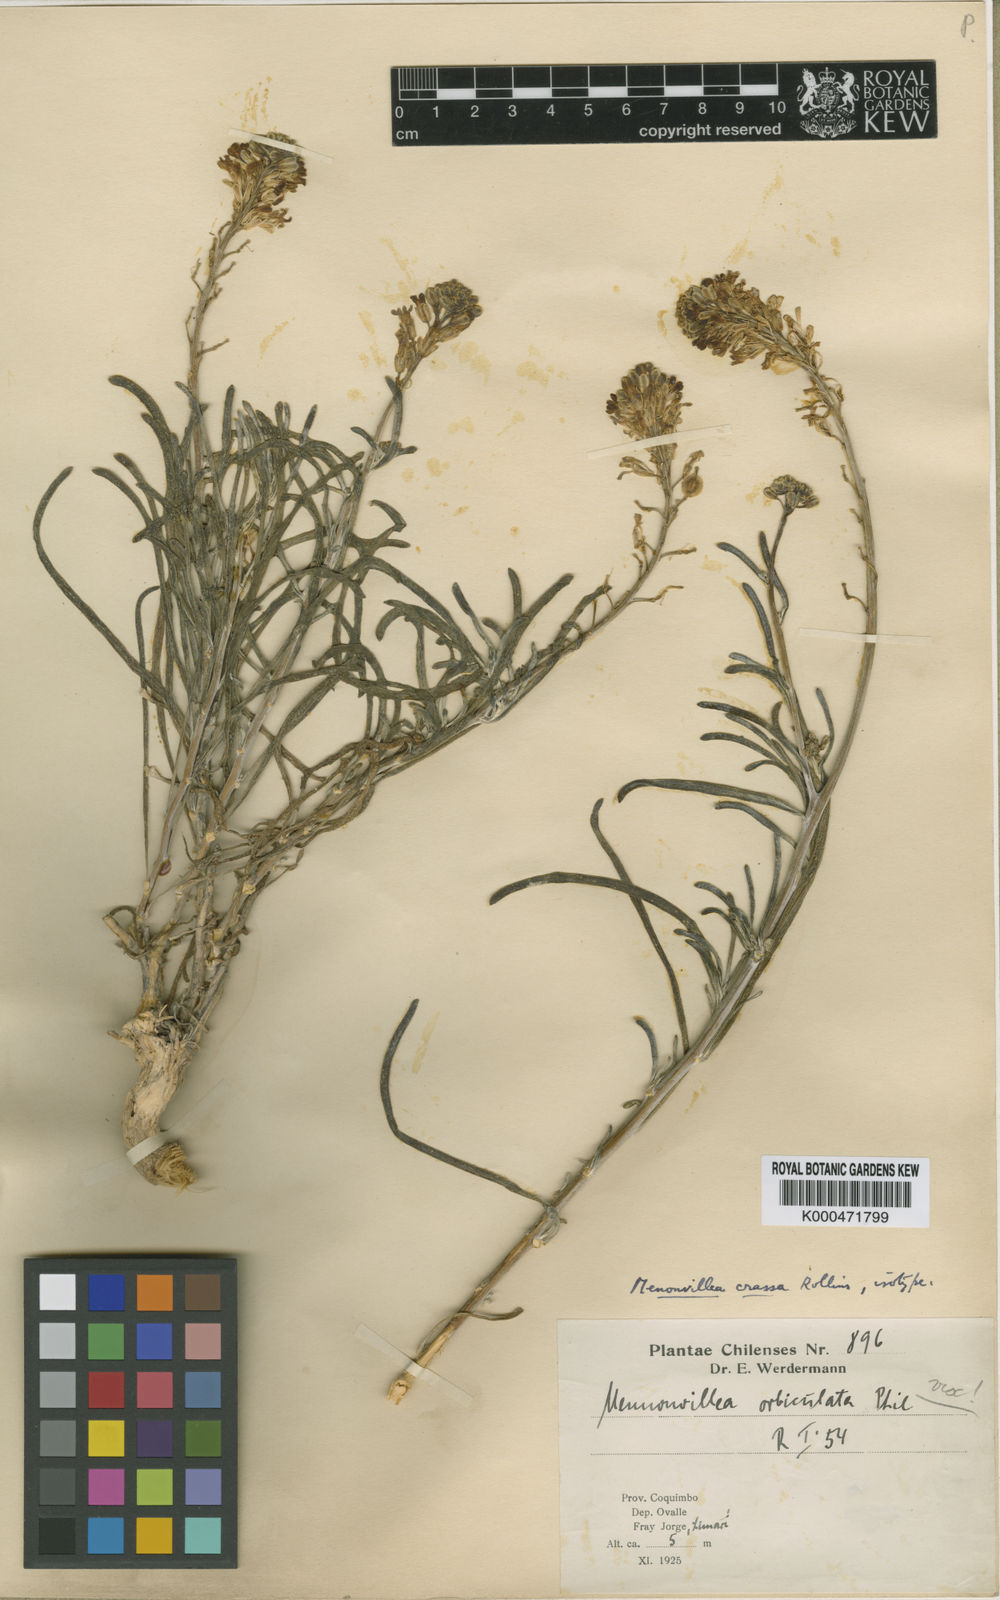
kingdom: Plantae
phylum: Tracheophyta
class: Magnoliopsida
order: Brassicales
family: Brassicaceae
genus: Menonvillea
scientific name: Menonvillea flexuosa
